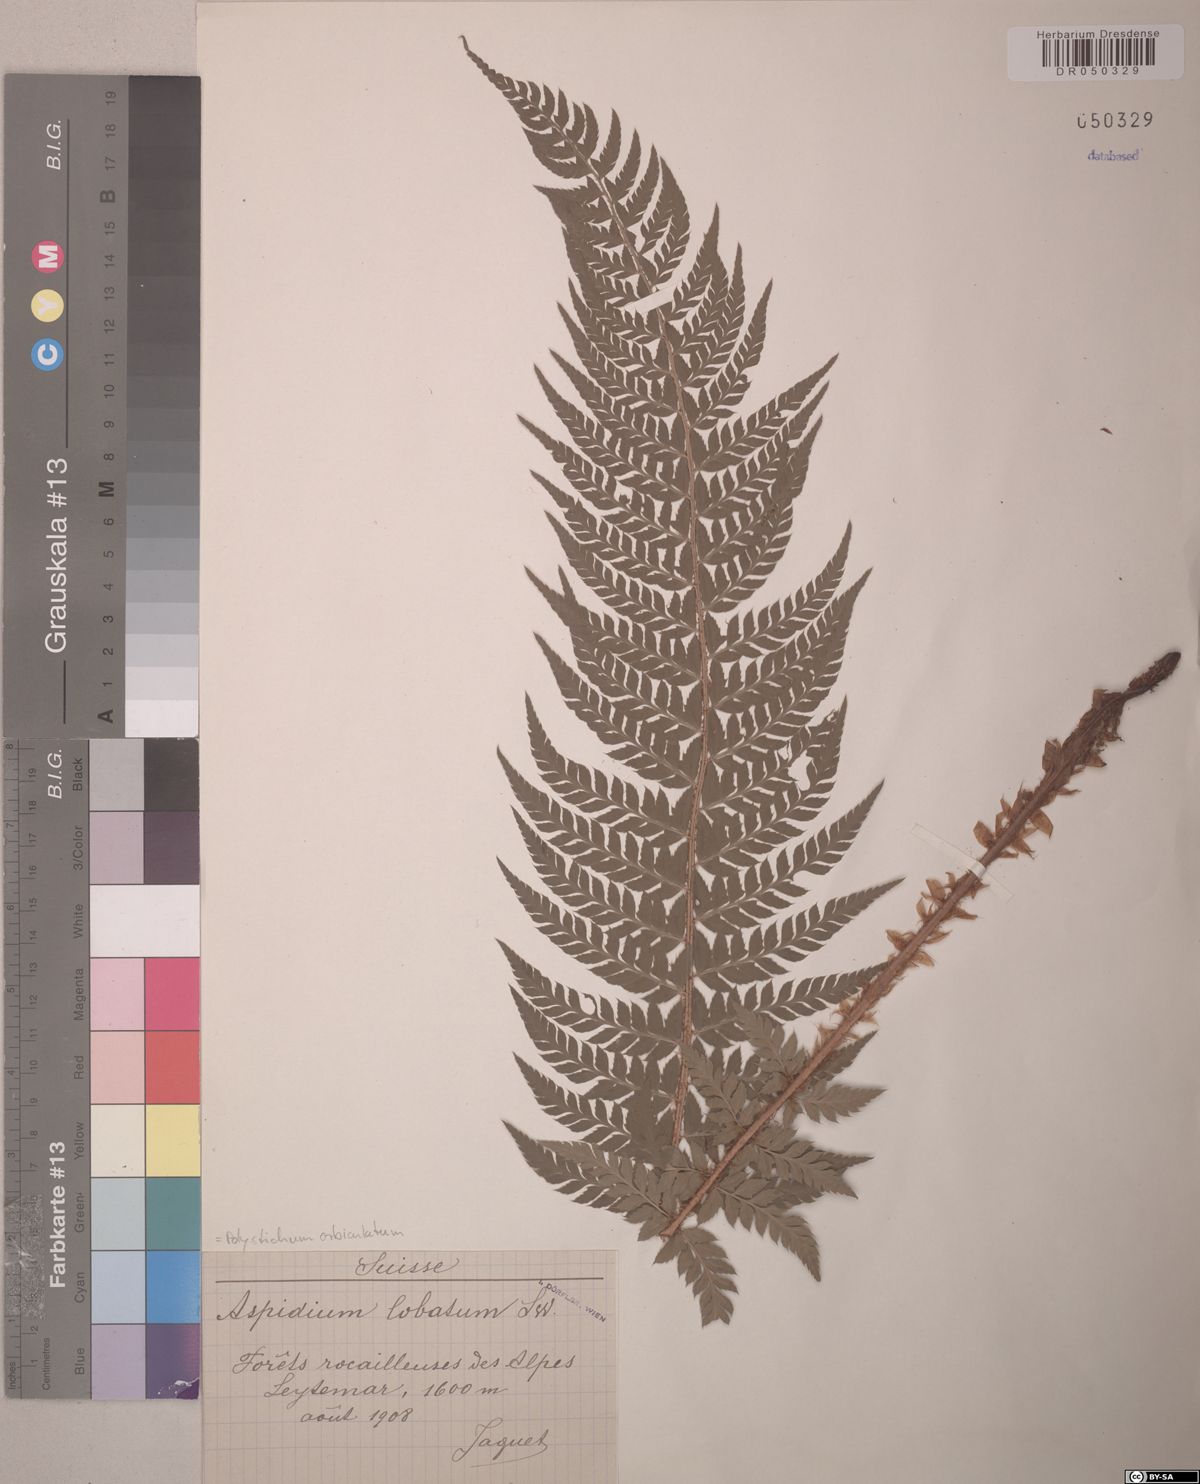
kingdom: Plantae
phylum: Tracheophyta
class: Polypodiopsida
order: Polypodiales
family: Dryopteridaceae
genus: Polystichum
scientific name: Polystichum aculeatum
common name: Hard shield-fern
